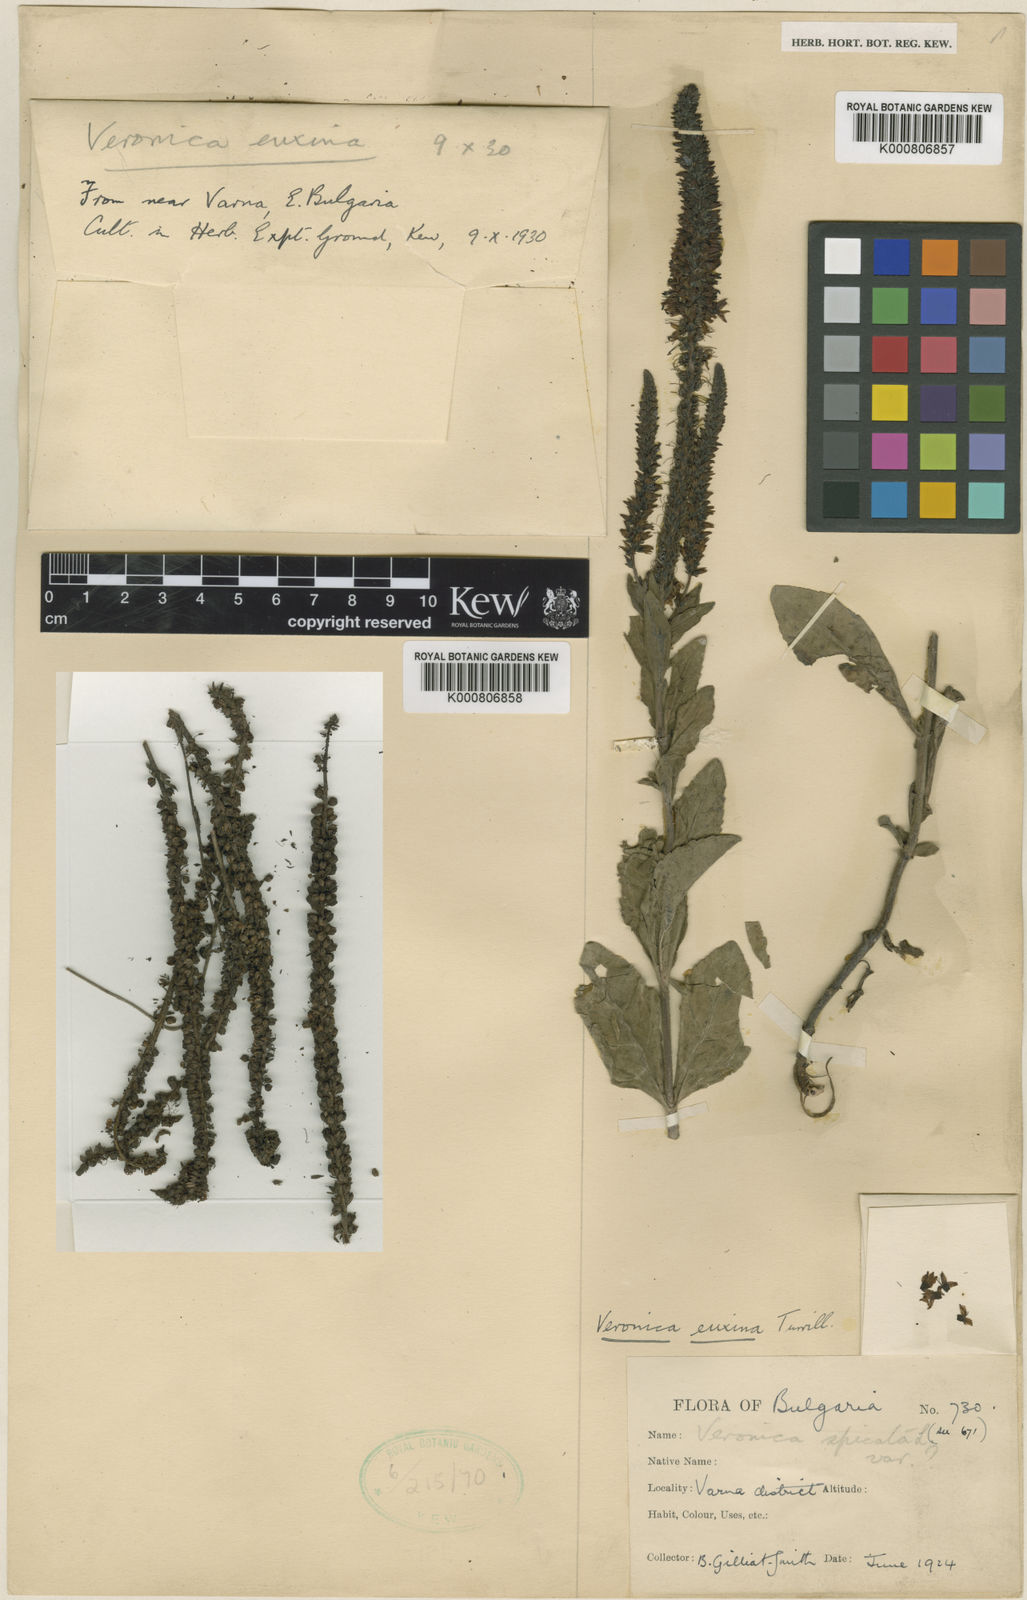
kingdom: Plantae
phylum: Tracheophyta
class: Magnoliopsida
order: Lamiales
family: Plantaginaceae
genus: Veronica
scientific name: Veronica spicata
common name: Spiked speedwell
